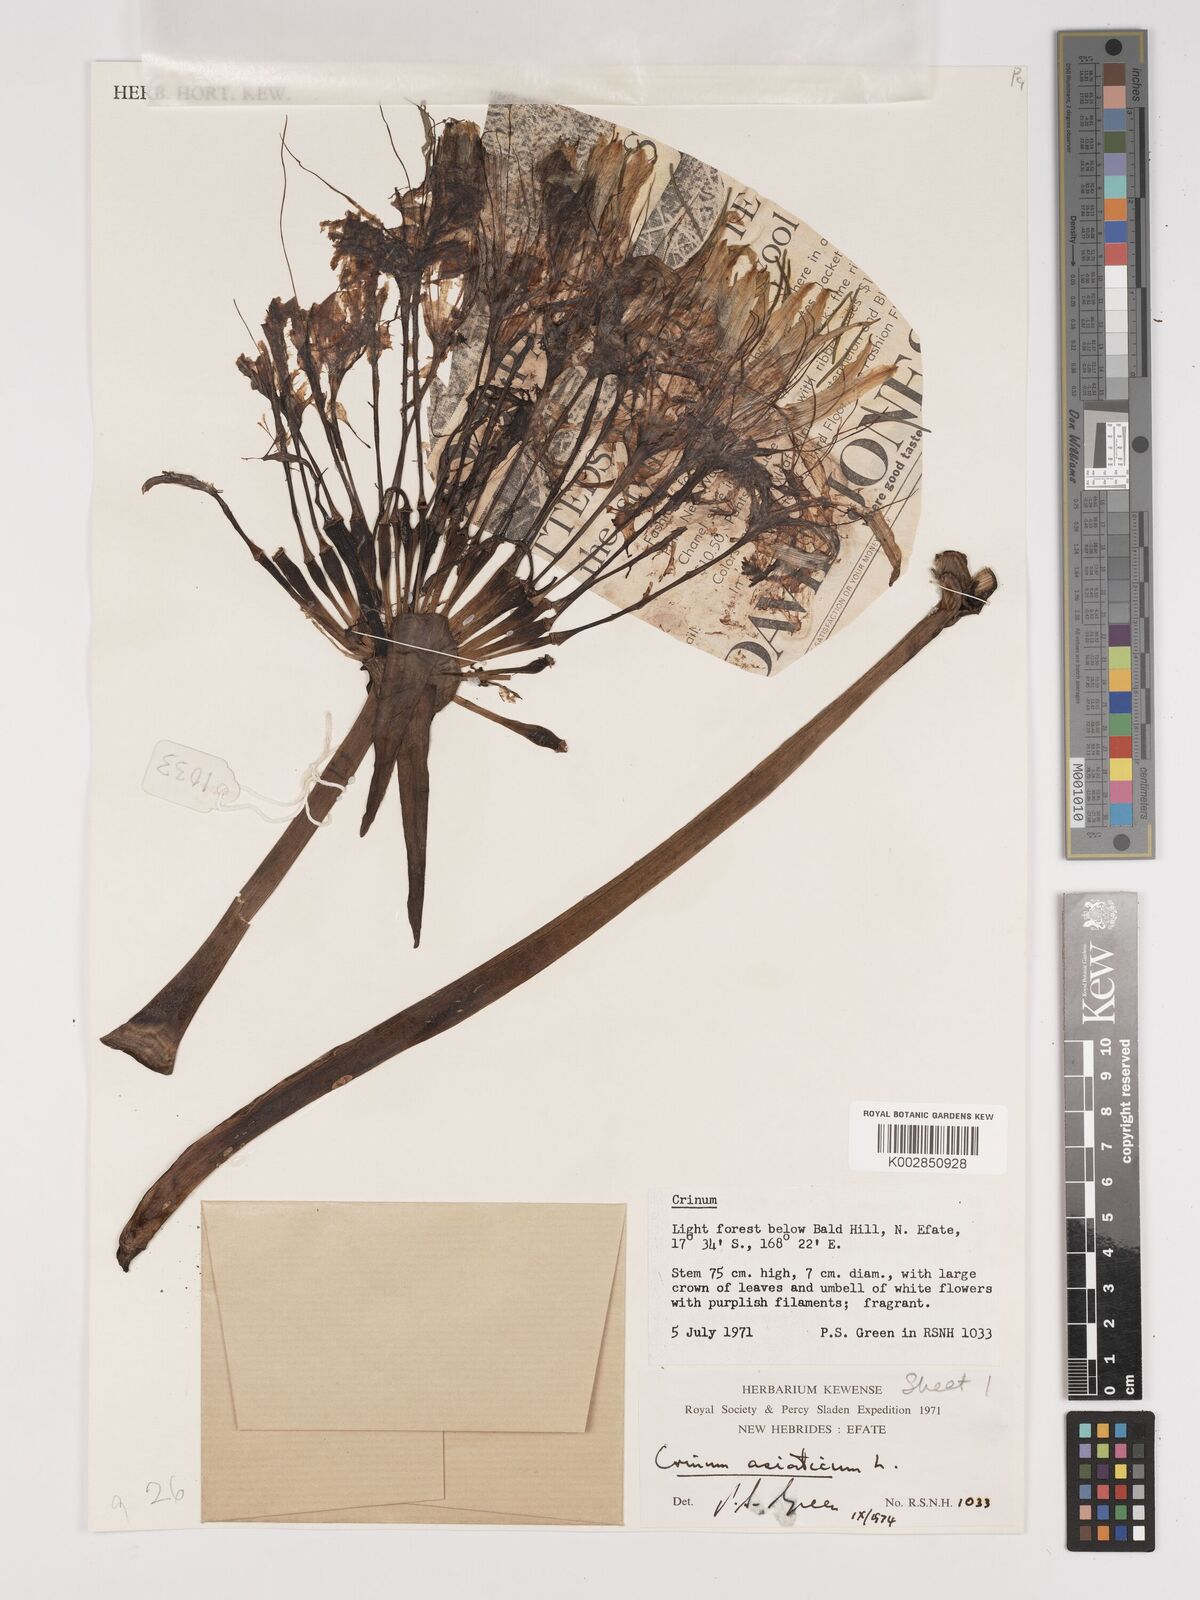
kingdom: Plantae
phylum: Tracheophyta
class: Liliopsida
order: Asparagales
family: Amaryllidaceae
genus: Crinum
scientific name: Crinum asiaticum
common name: Poisonbulb
